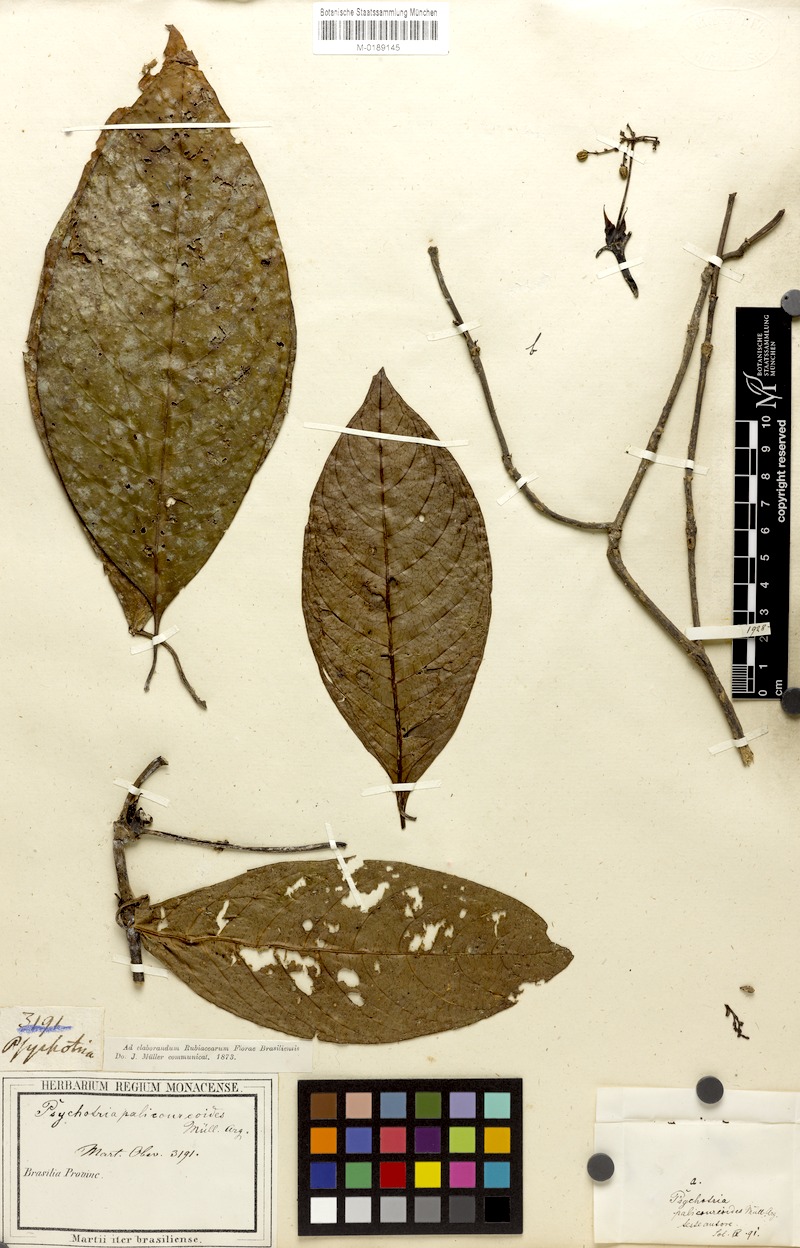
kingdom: Plantae
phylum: Tracheophyta
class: Magnoliopsida
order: Gentianales
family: Rubiaceae
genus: Palicourea
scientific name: Palicourea microbotrys
